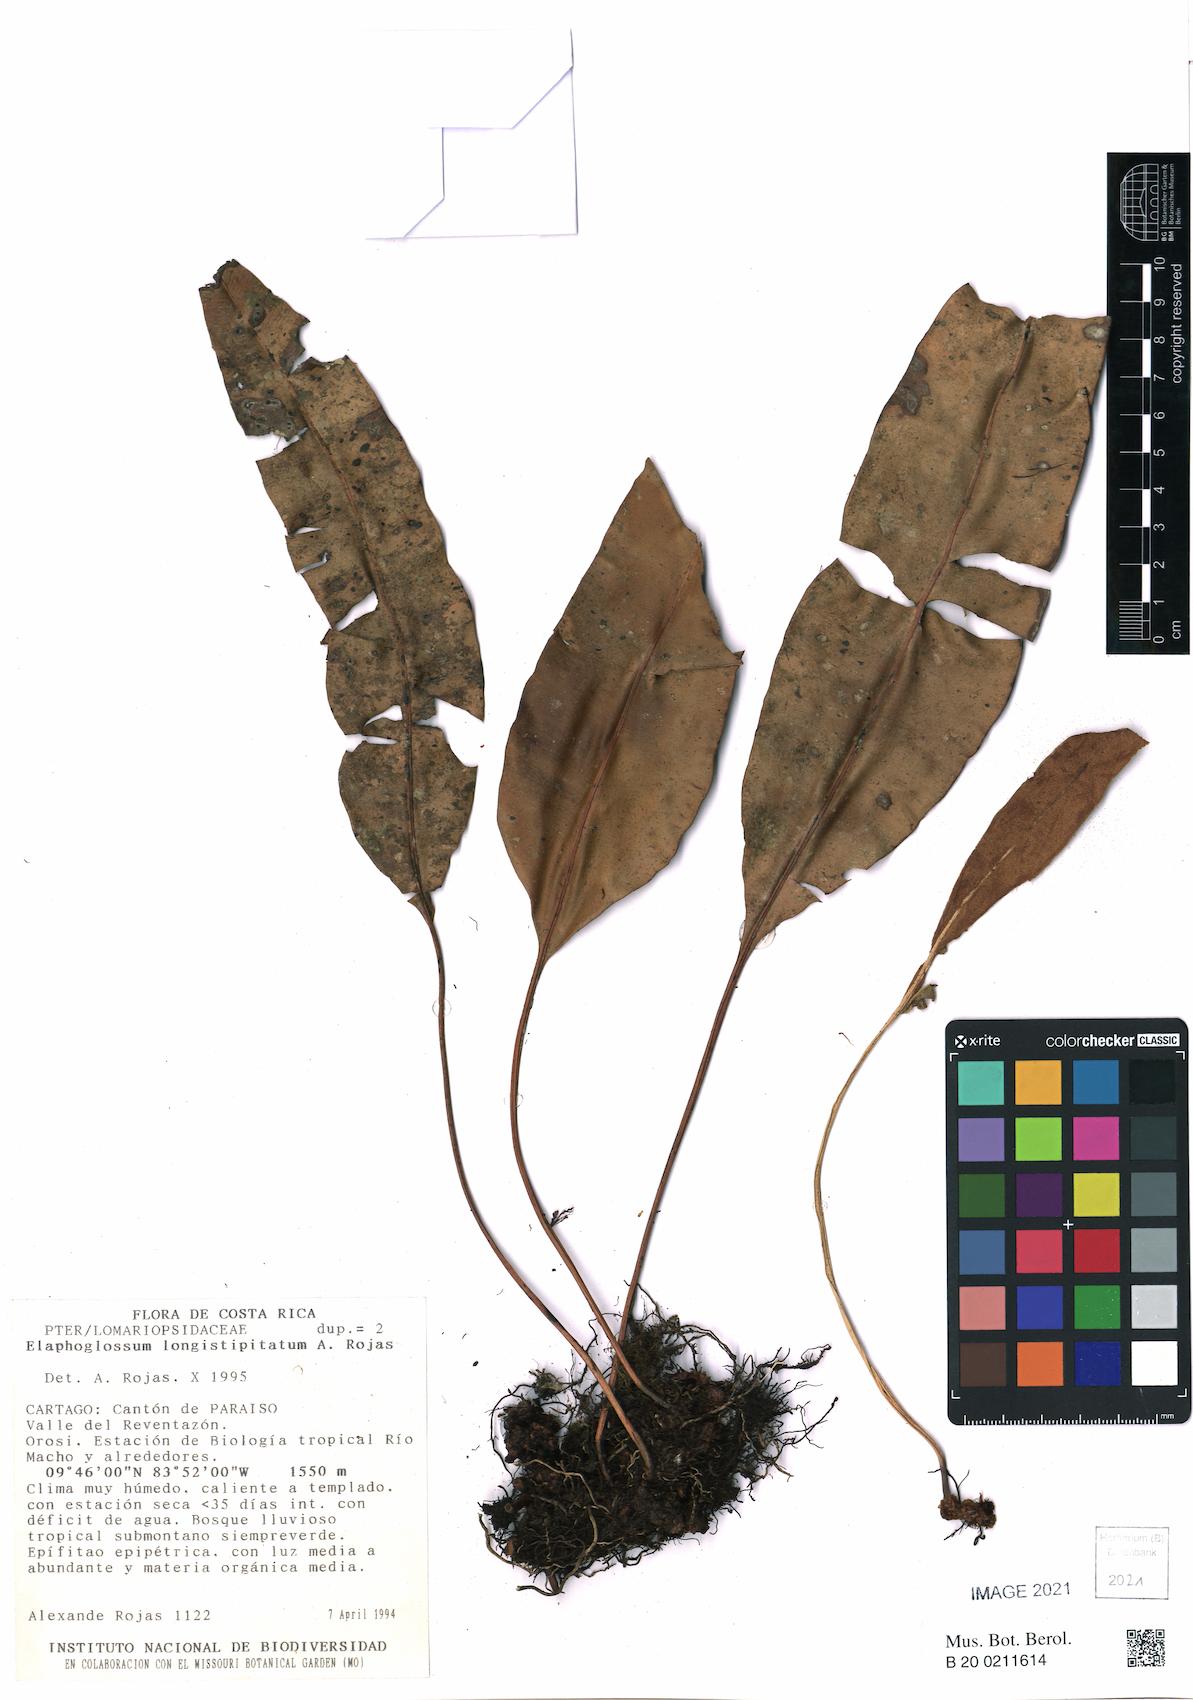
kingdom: Plantae
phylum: Tracheophyta
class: Polypodiopsida
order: Polypodiales
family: Dryopteridaceae
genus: Elaphoglossum
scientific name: Elaphoglossum longistipitatum
